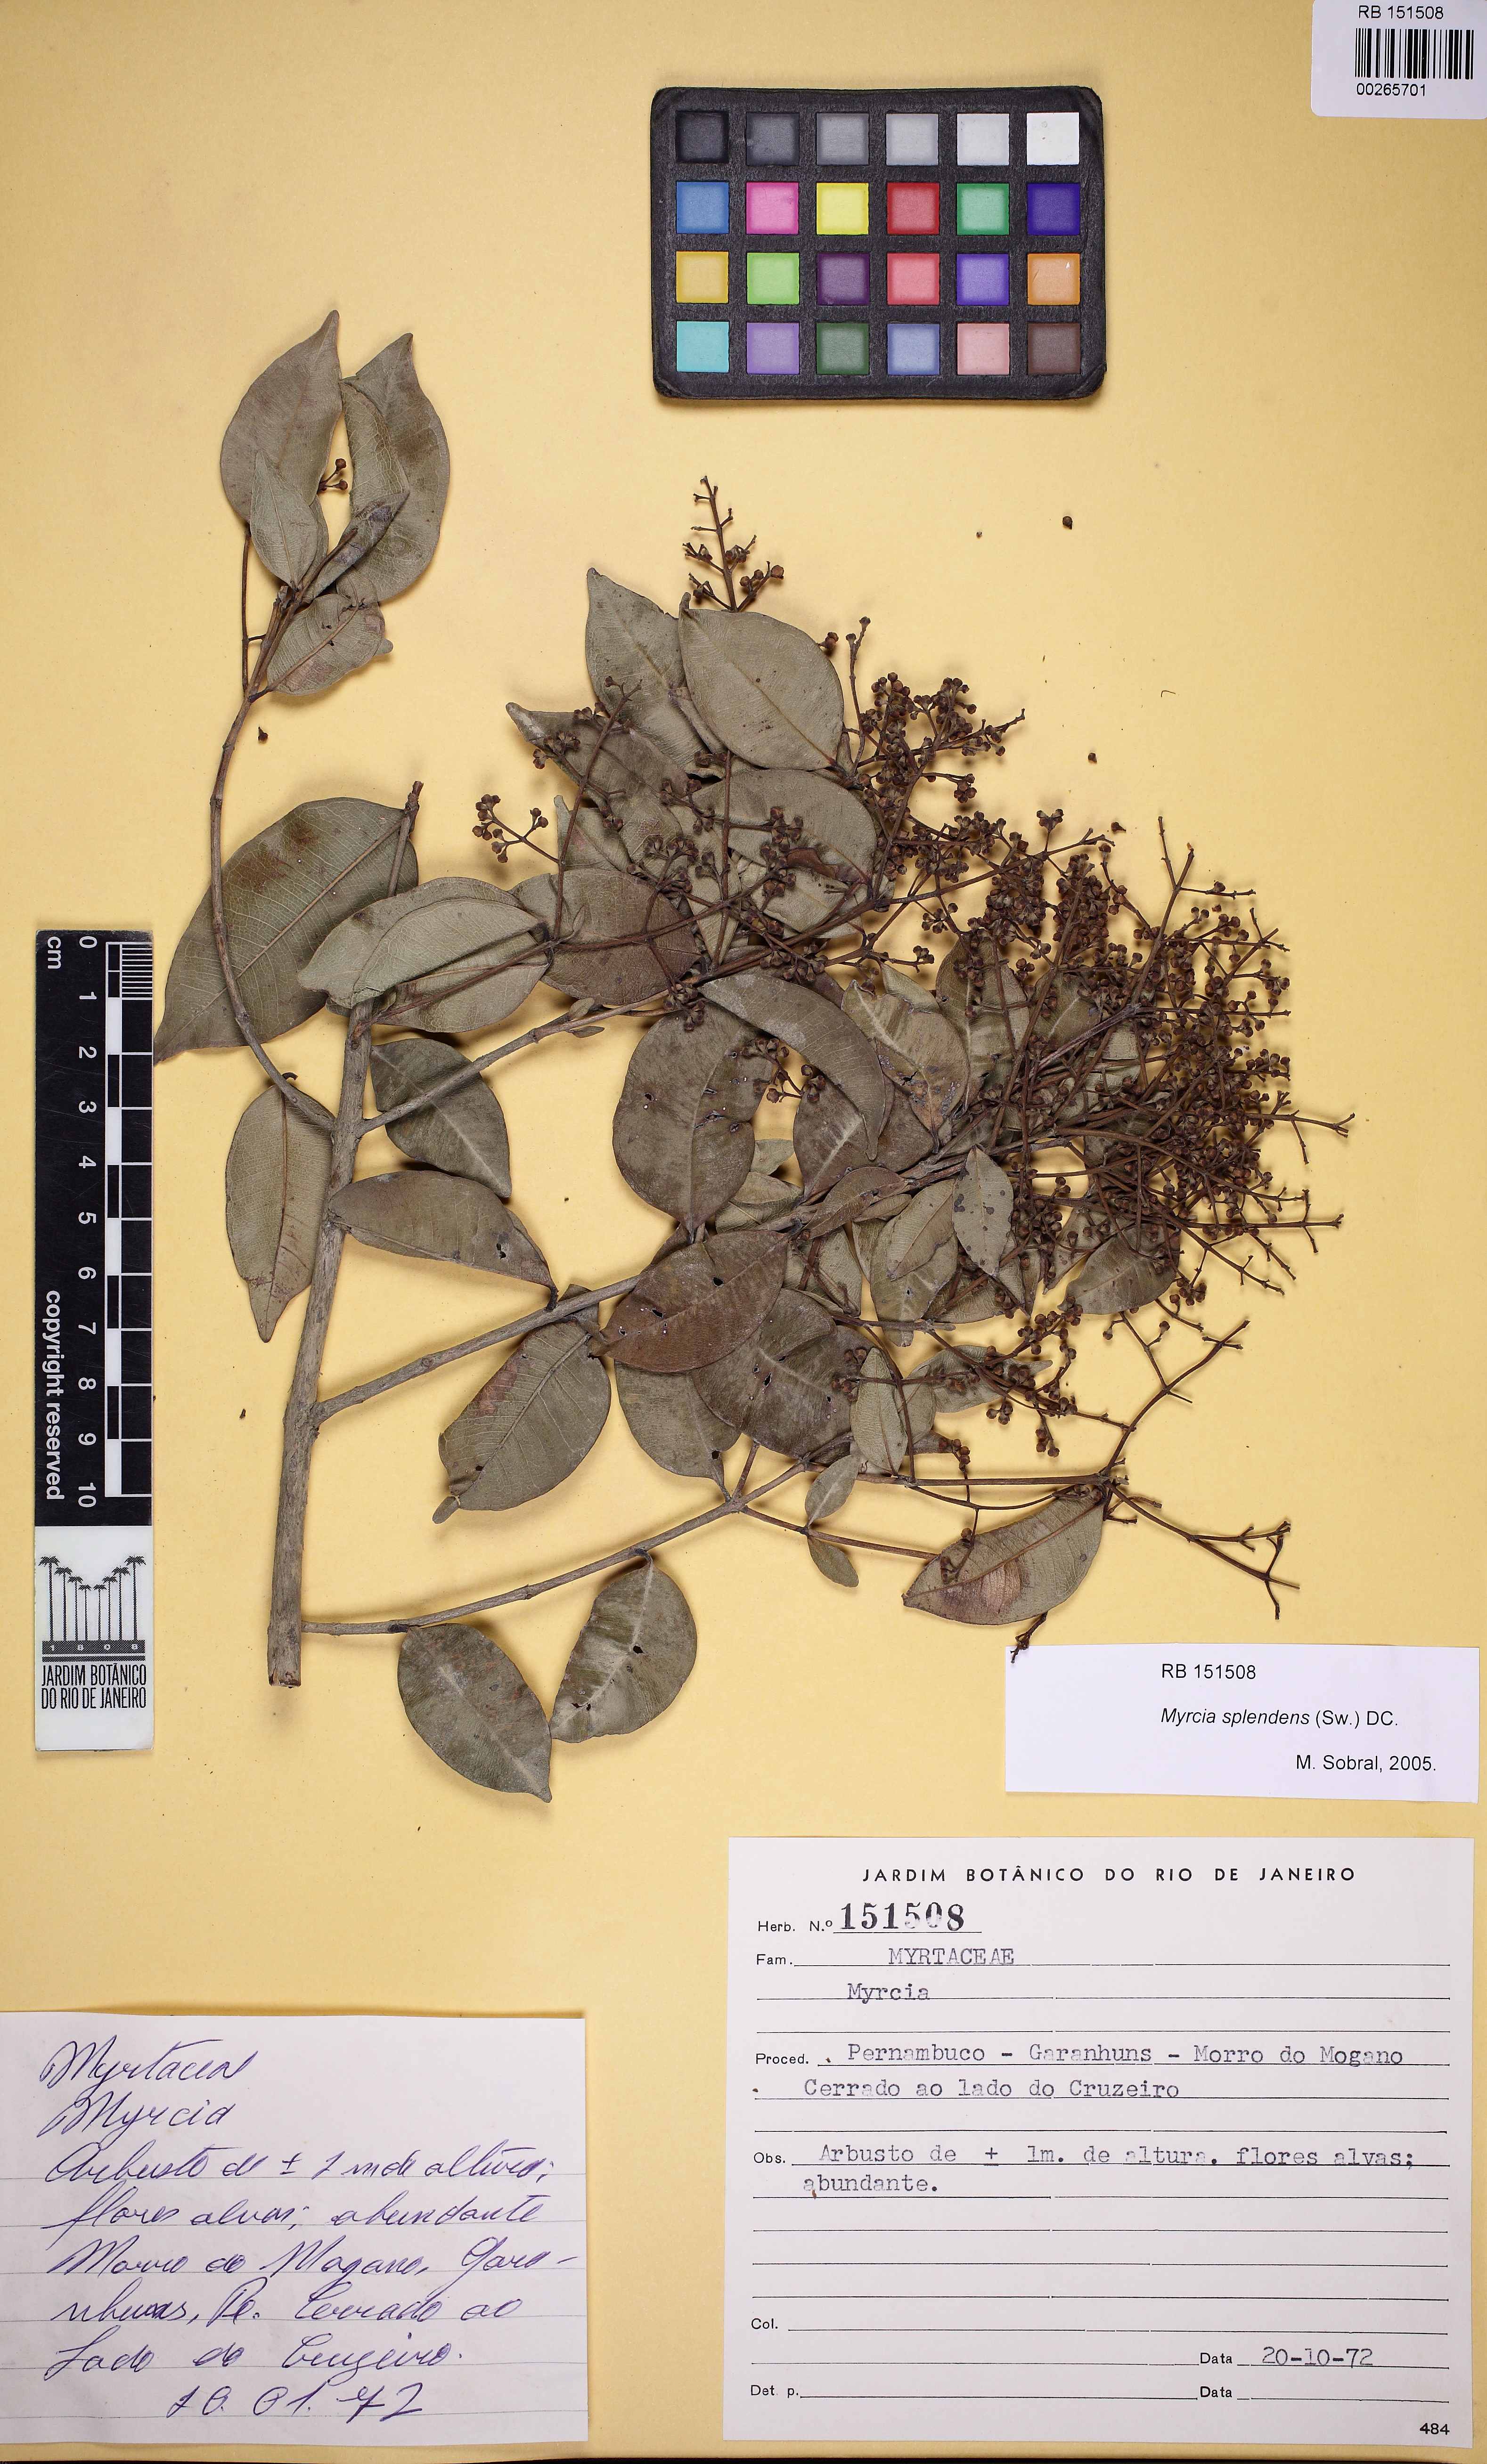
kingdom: Plantae
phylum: Tracheophyta
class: Magnoliopsida
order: Myrtales
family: Myrtaceae
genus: Myrcia
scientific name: Myrcia splendens
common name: Surinam cherry
